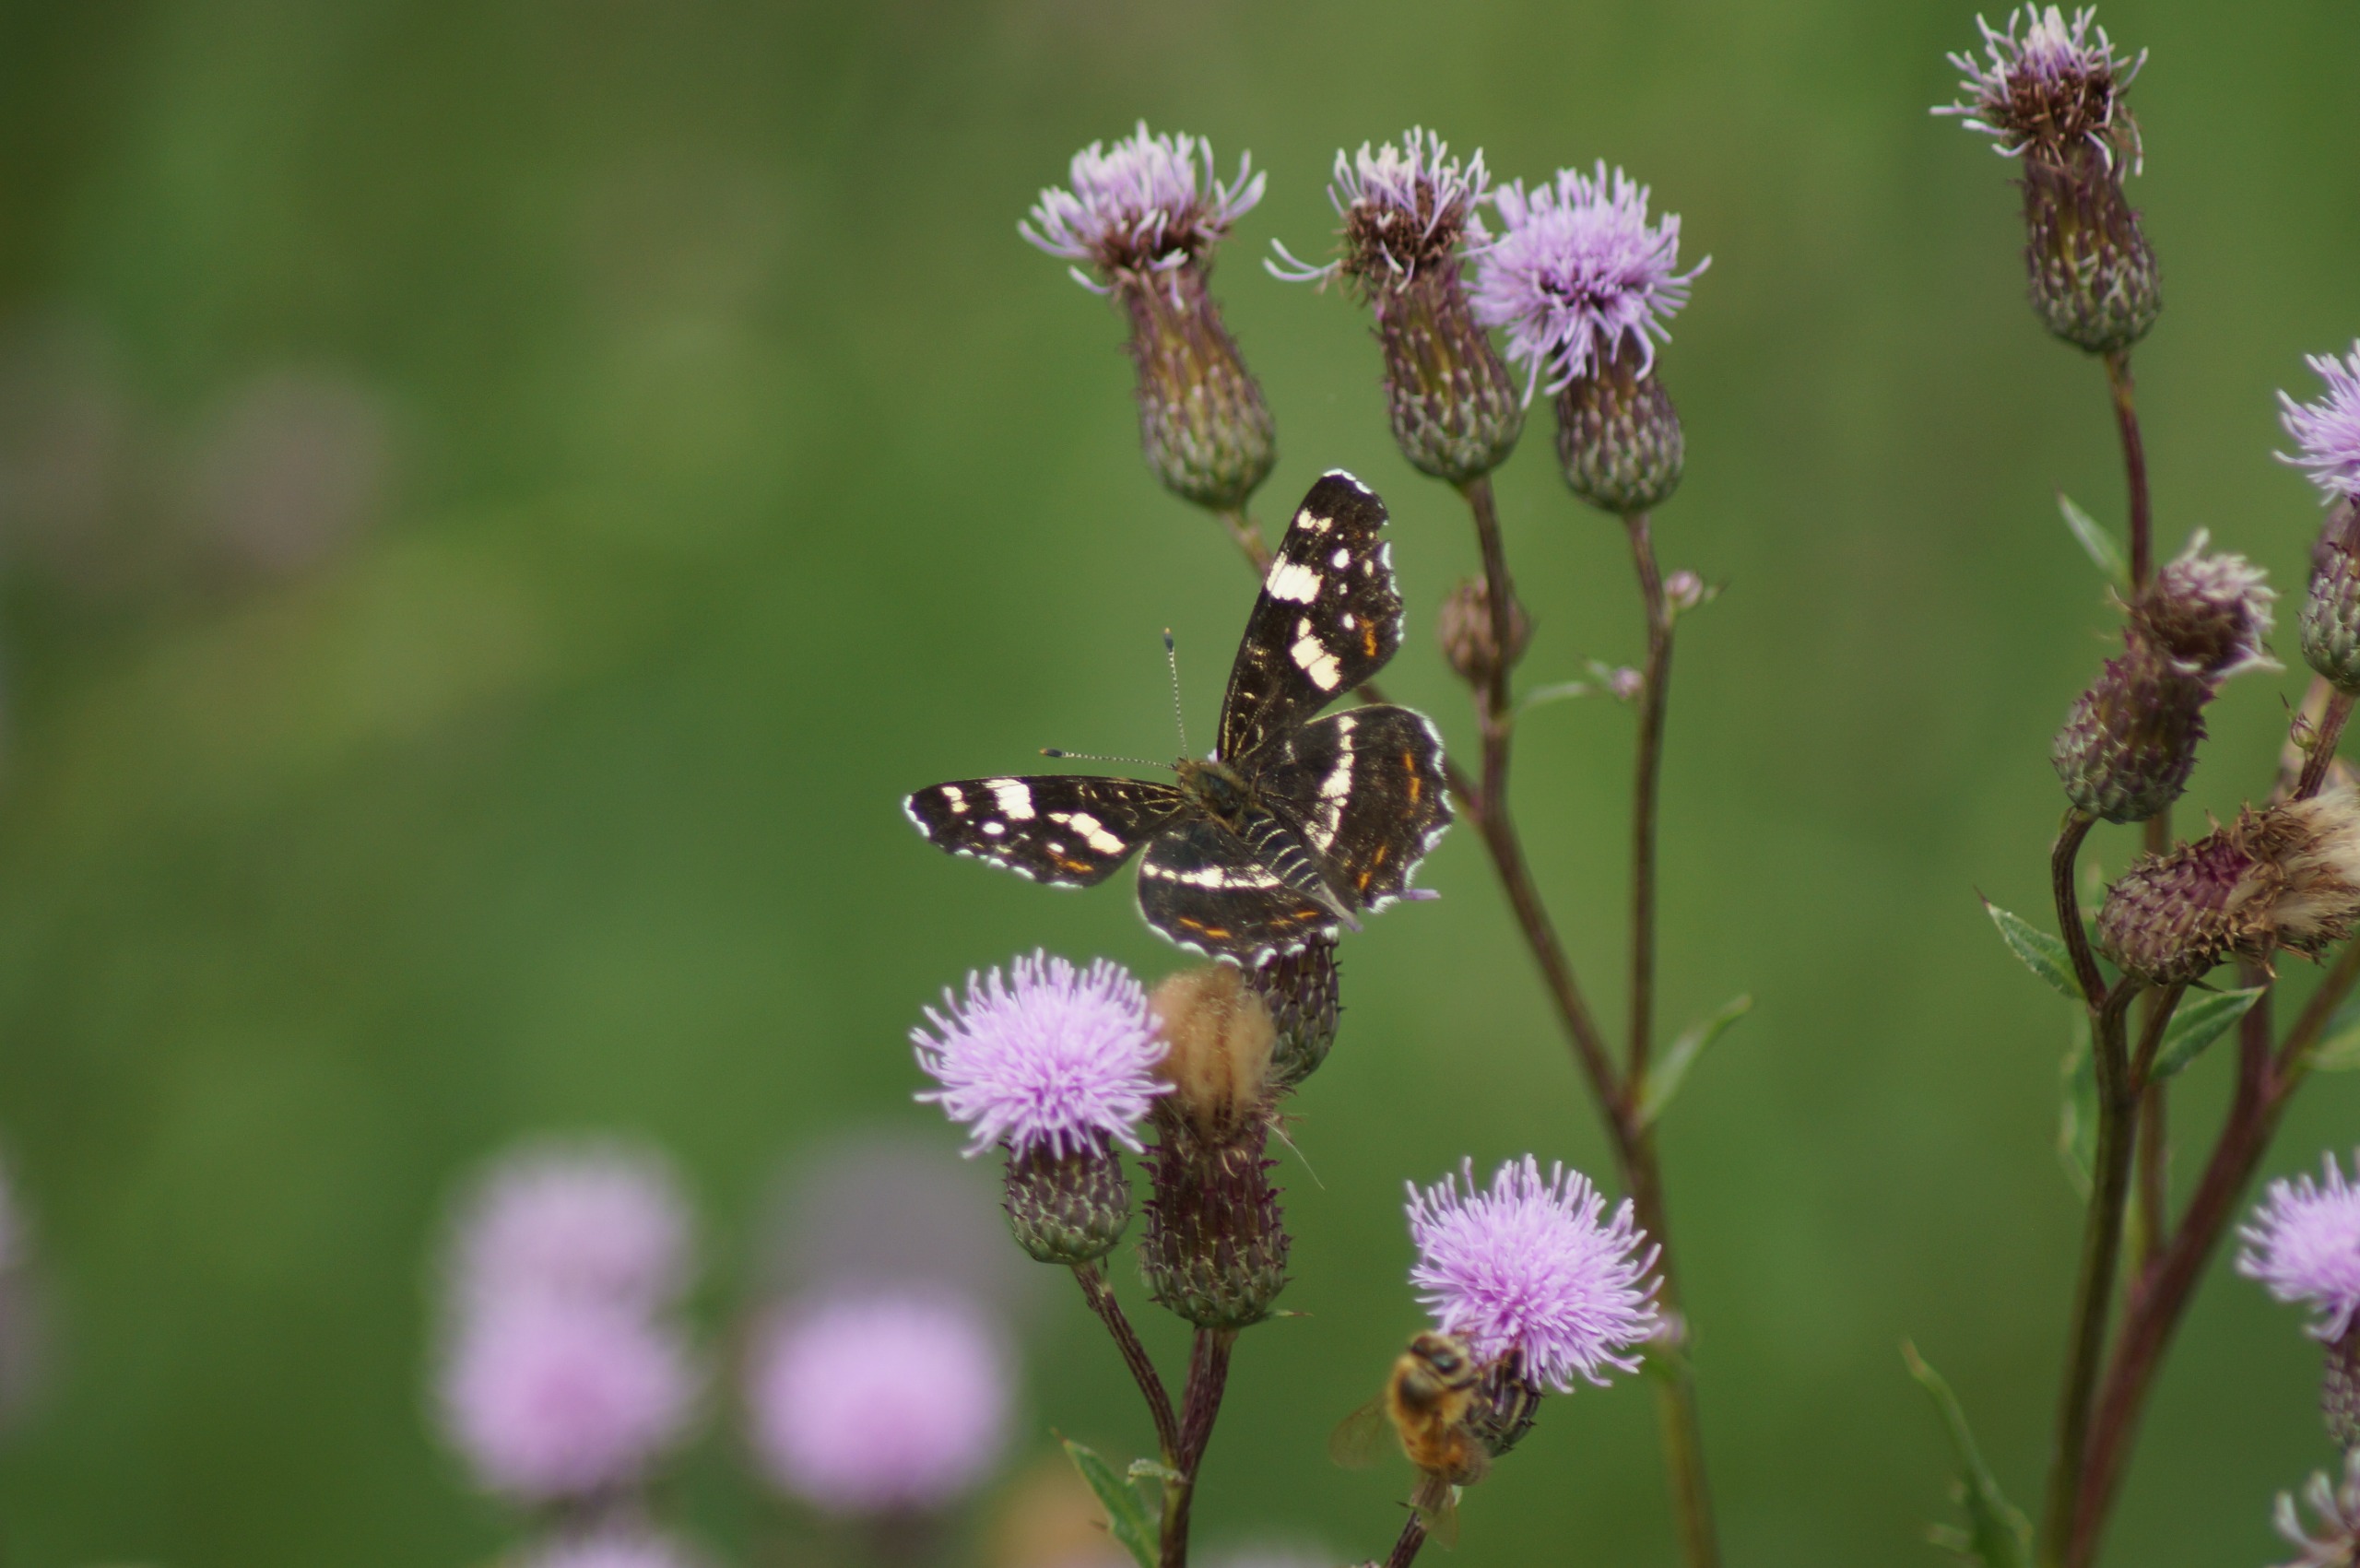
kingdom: Animalia
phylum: Arthropoda
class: Insecta
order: Lepidoptera
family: Nymphalidae
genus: Araschnia
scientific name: Araschnia levana
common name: Nældesommerfugl
